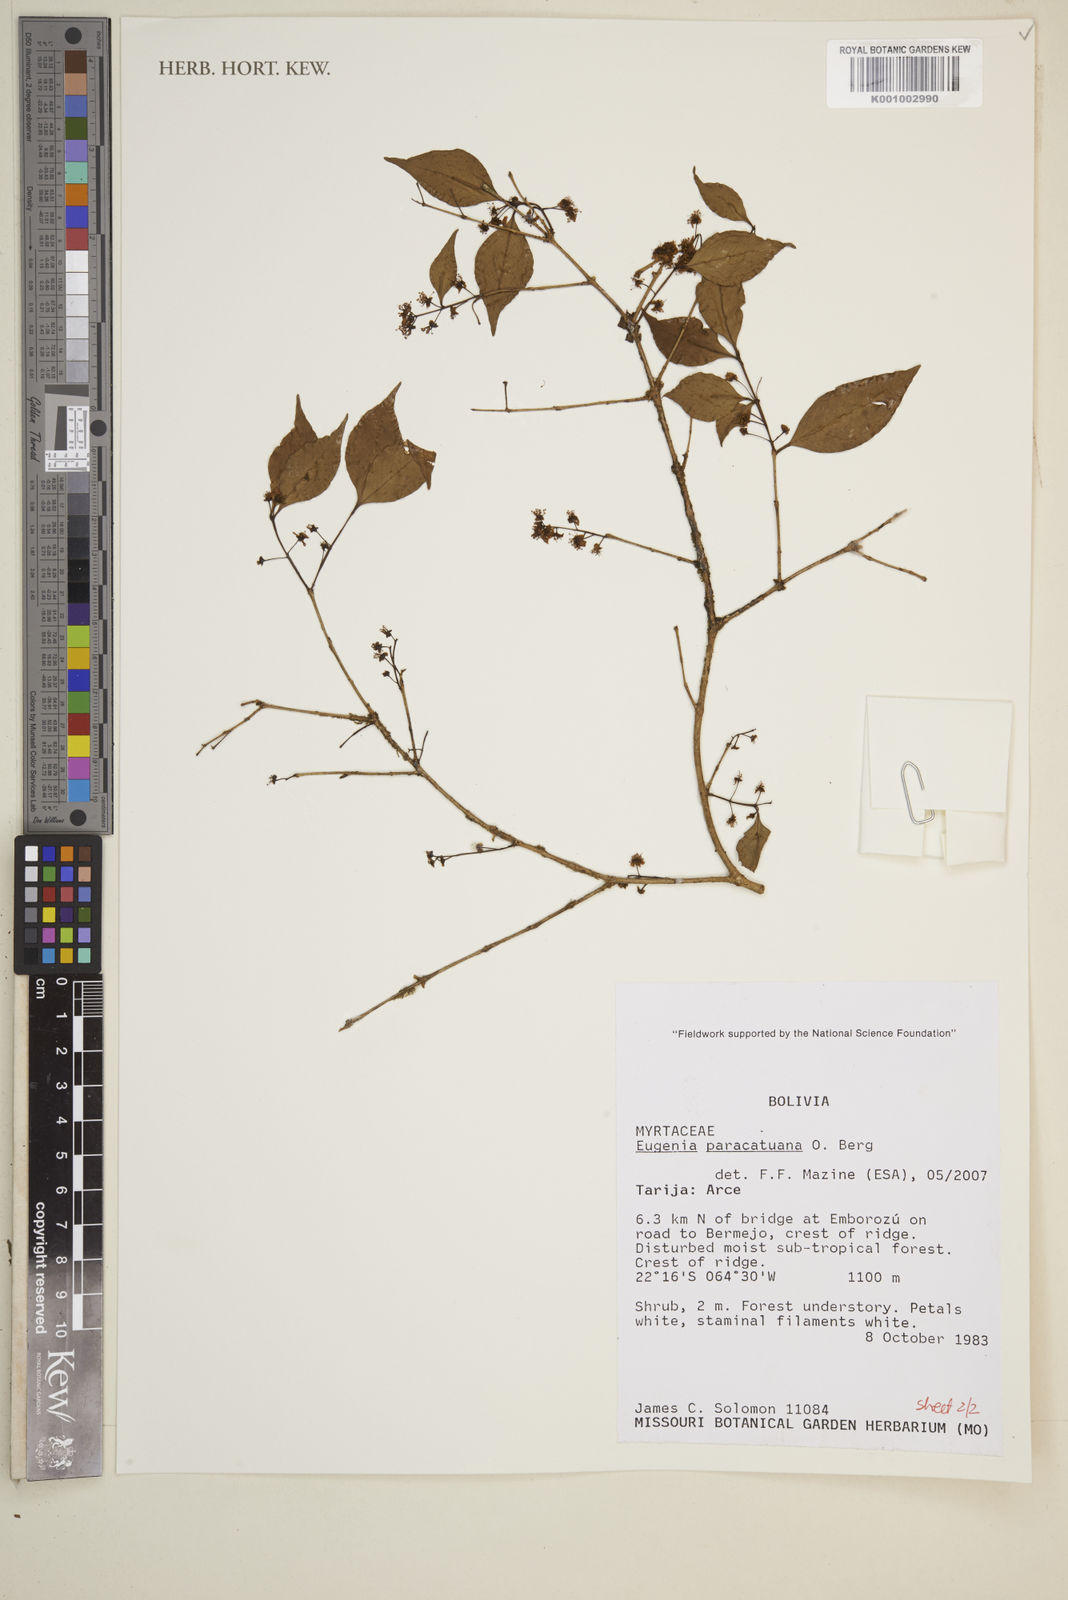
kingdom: Plantae
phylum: Tracheophyta
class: Magnoliopsida
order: Myrtales
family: Myrtaceae
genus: Eugenia
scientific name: Eugenia moraviana
